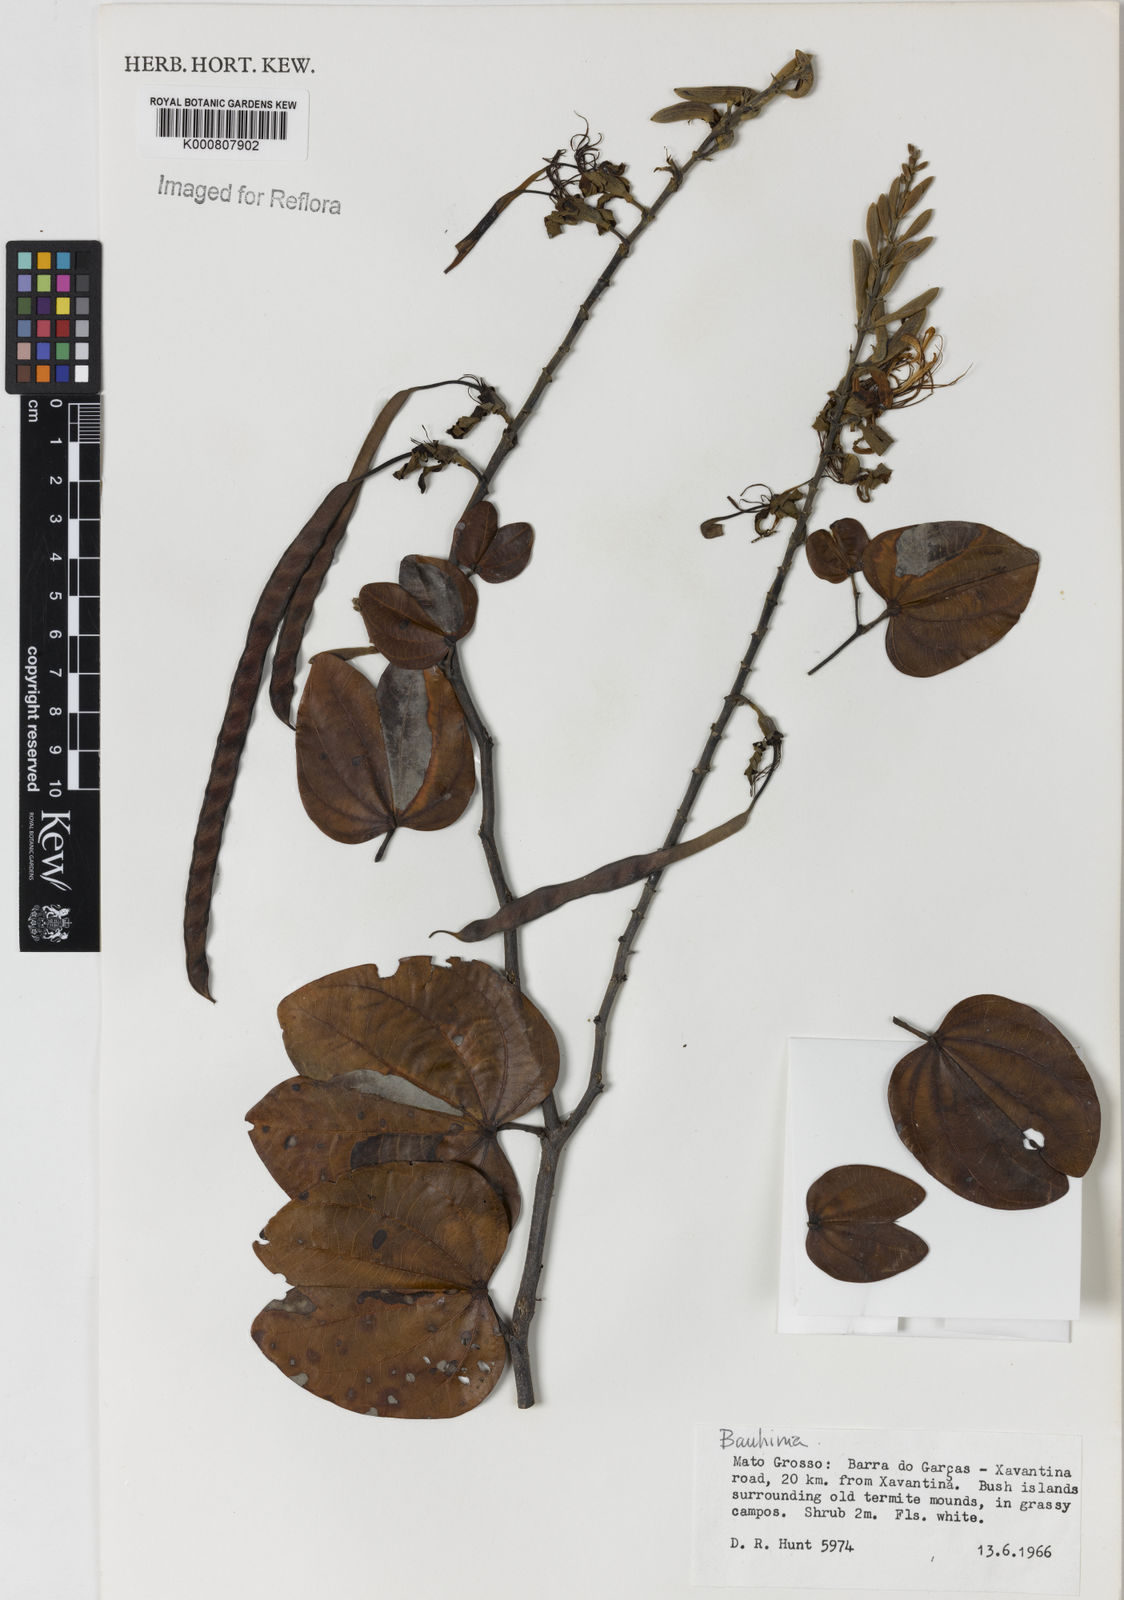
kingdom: Plantae
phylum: Tracheophyta
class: Magnoliopsida
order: Fabales
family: Fabaceae
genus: Bauhinia
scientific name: Bauhinia
